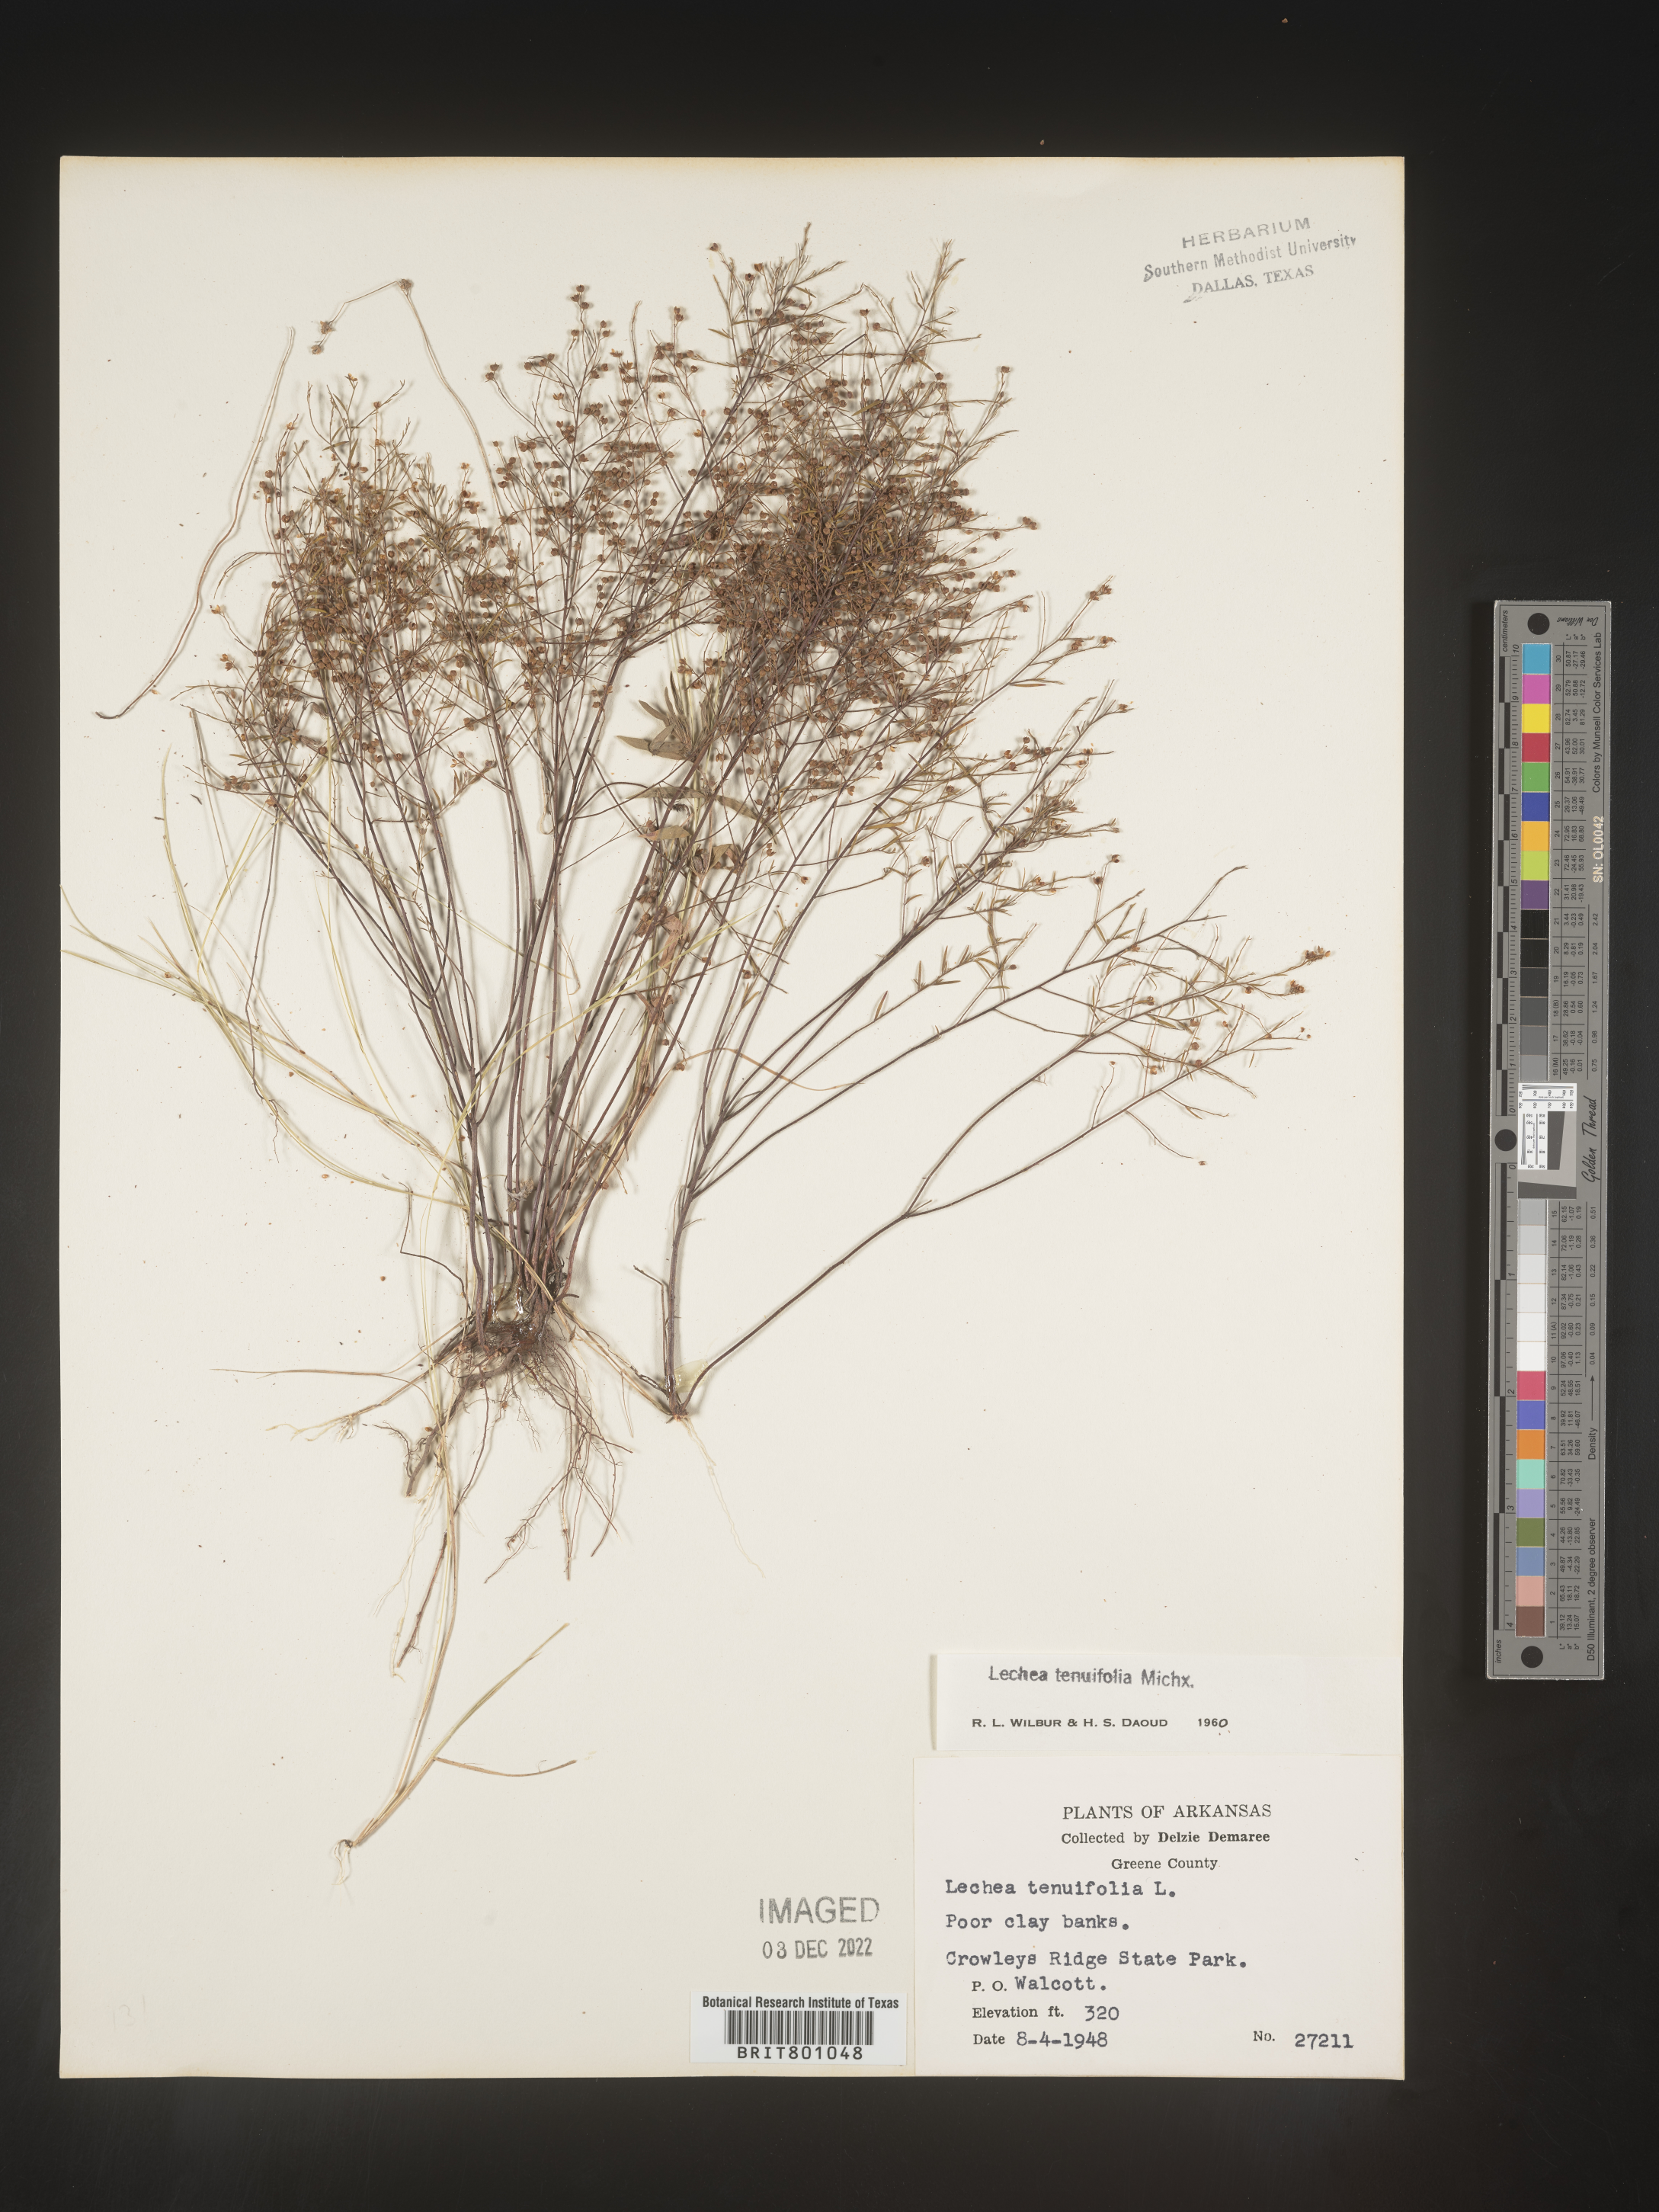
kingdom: Plantae
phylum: Tracheophyta
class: Magnoliopsida
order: Malvales
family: Cistaceae
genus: Lechea
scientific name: Lechea tenuifolia
